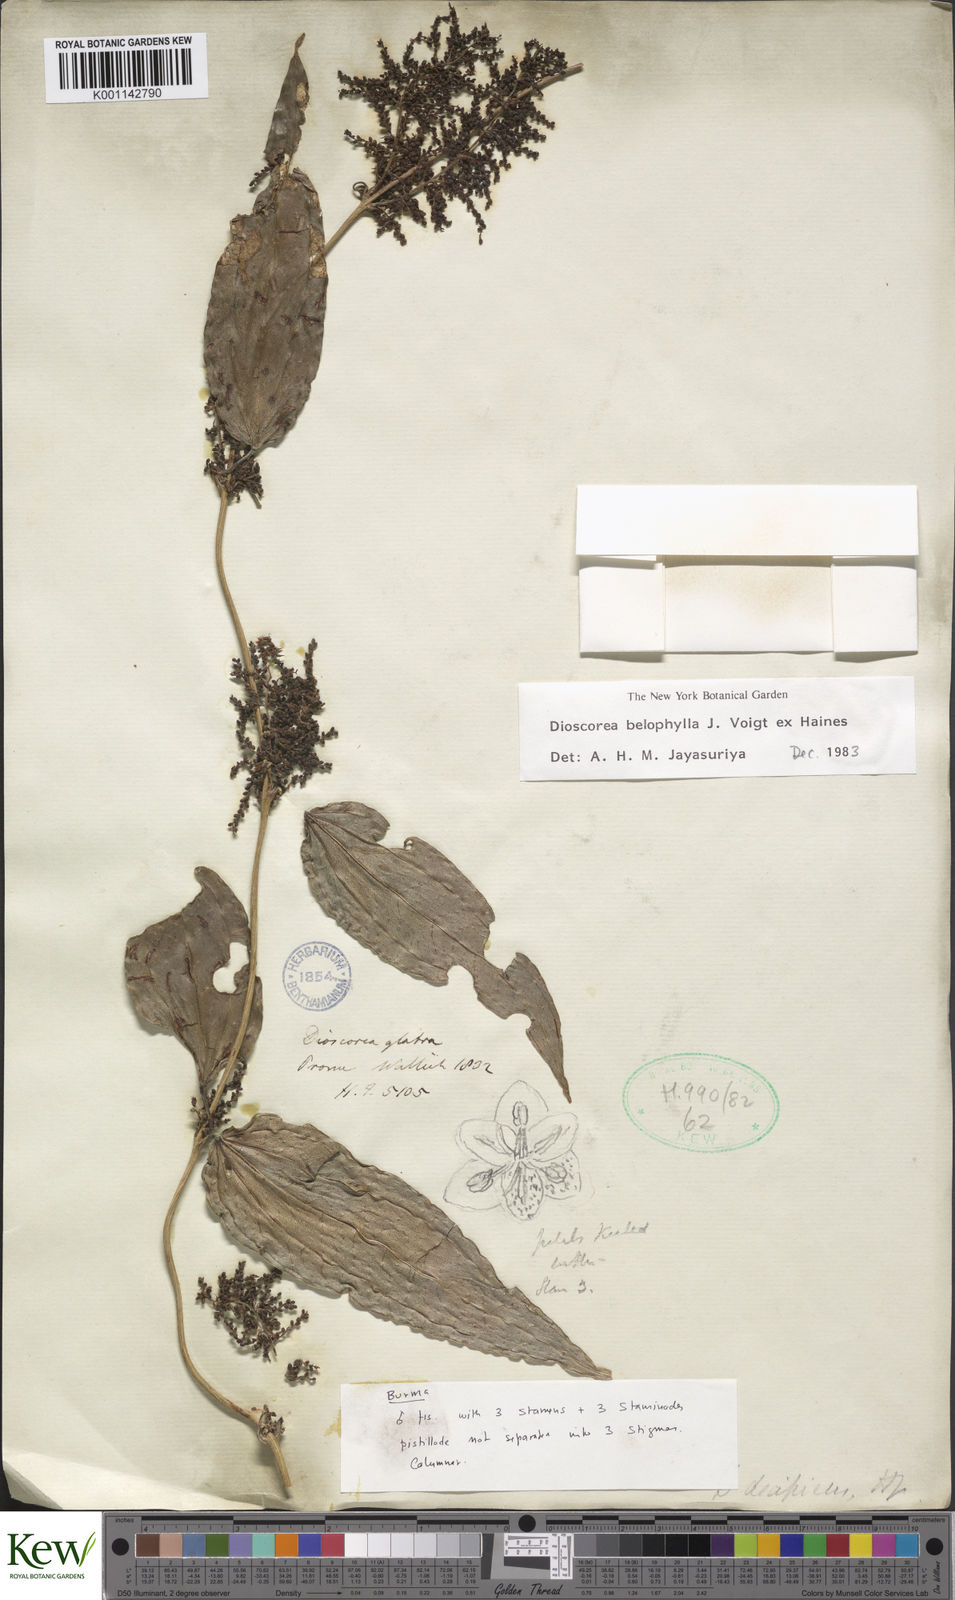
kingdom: Plantae
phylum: Tracheophyta
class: Liliopsida
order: Dioscoreales
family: Dioscoreaceae
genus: Dioscorea
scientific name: Dioscorea belophylla
